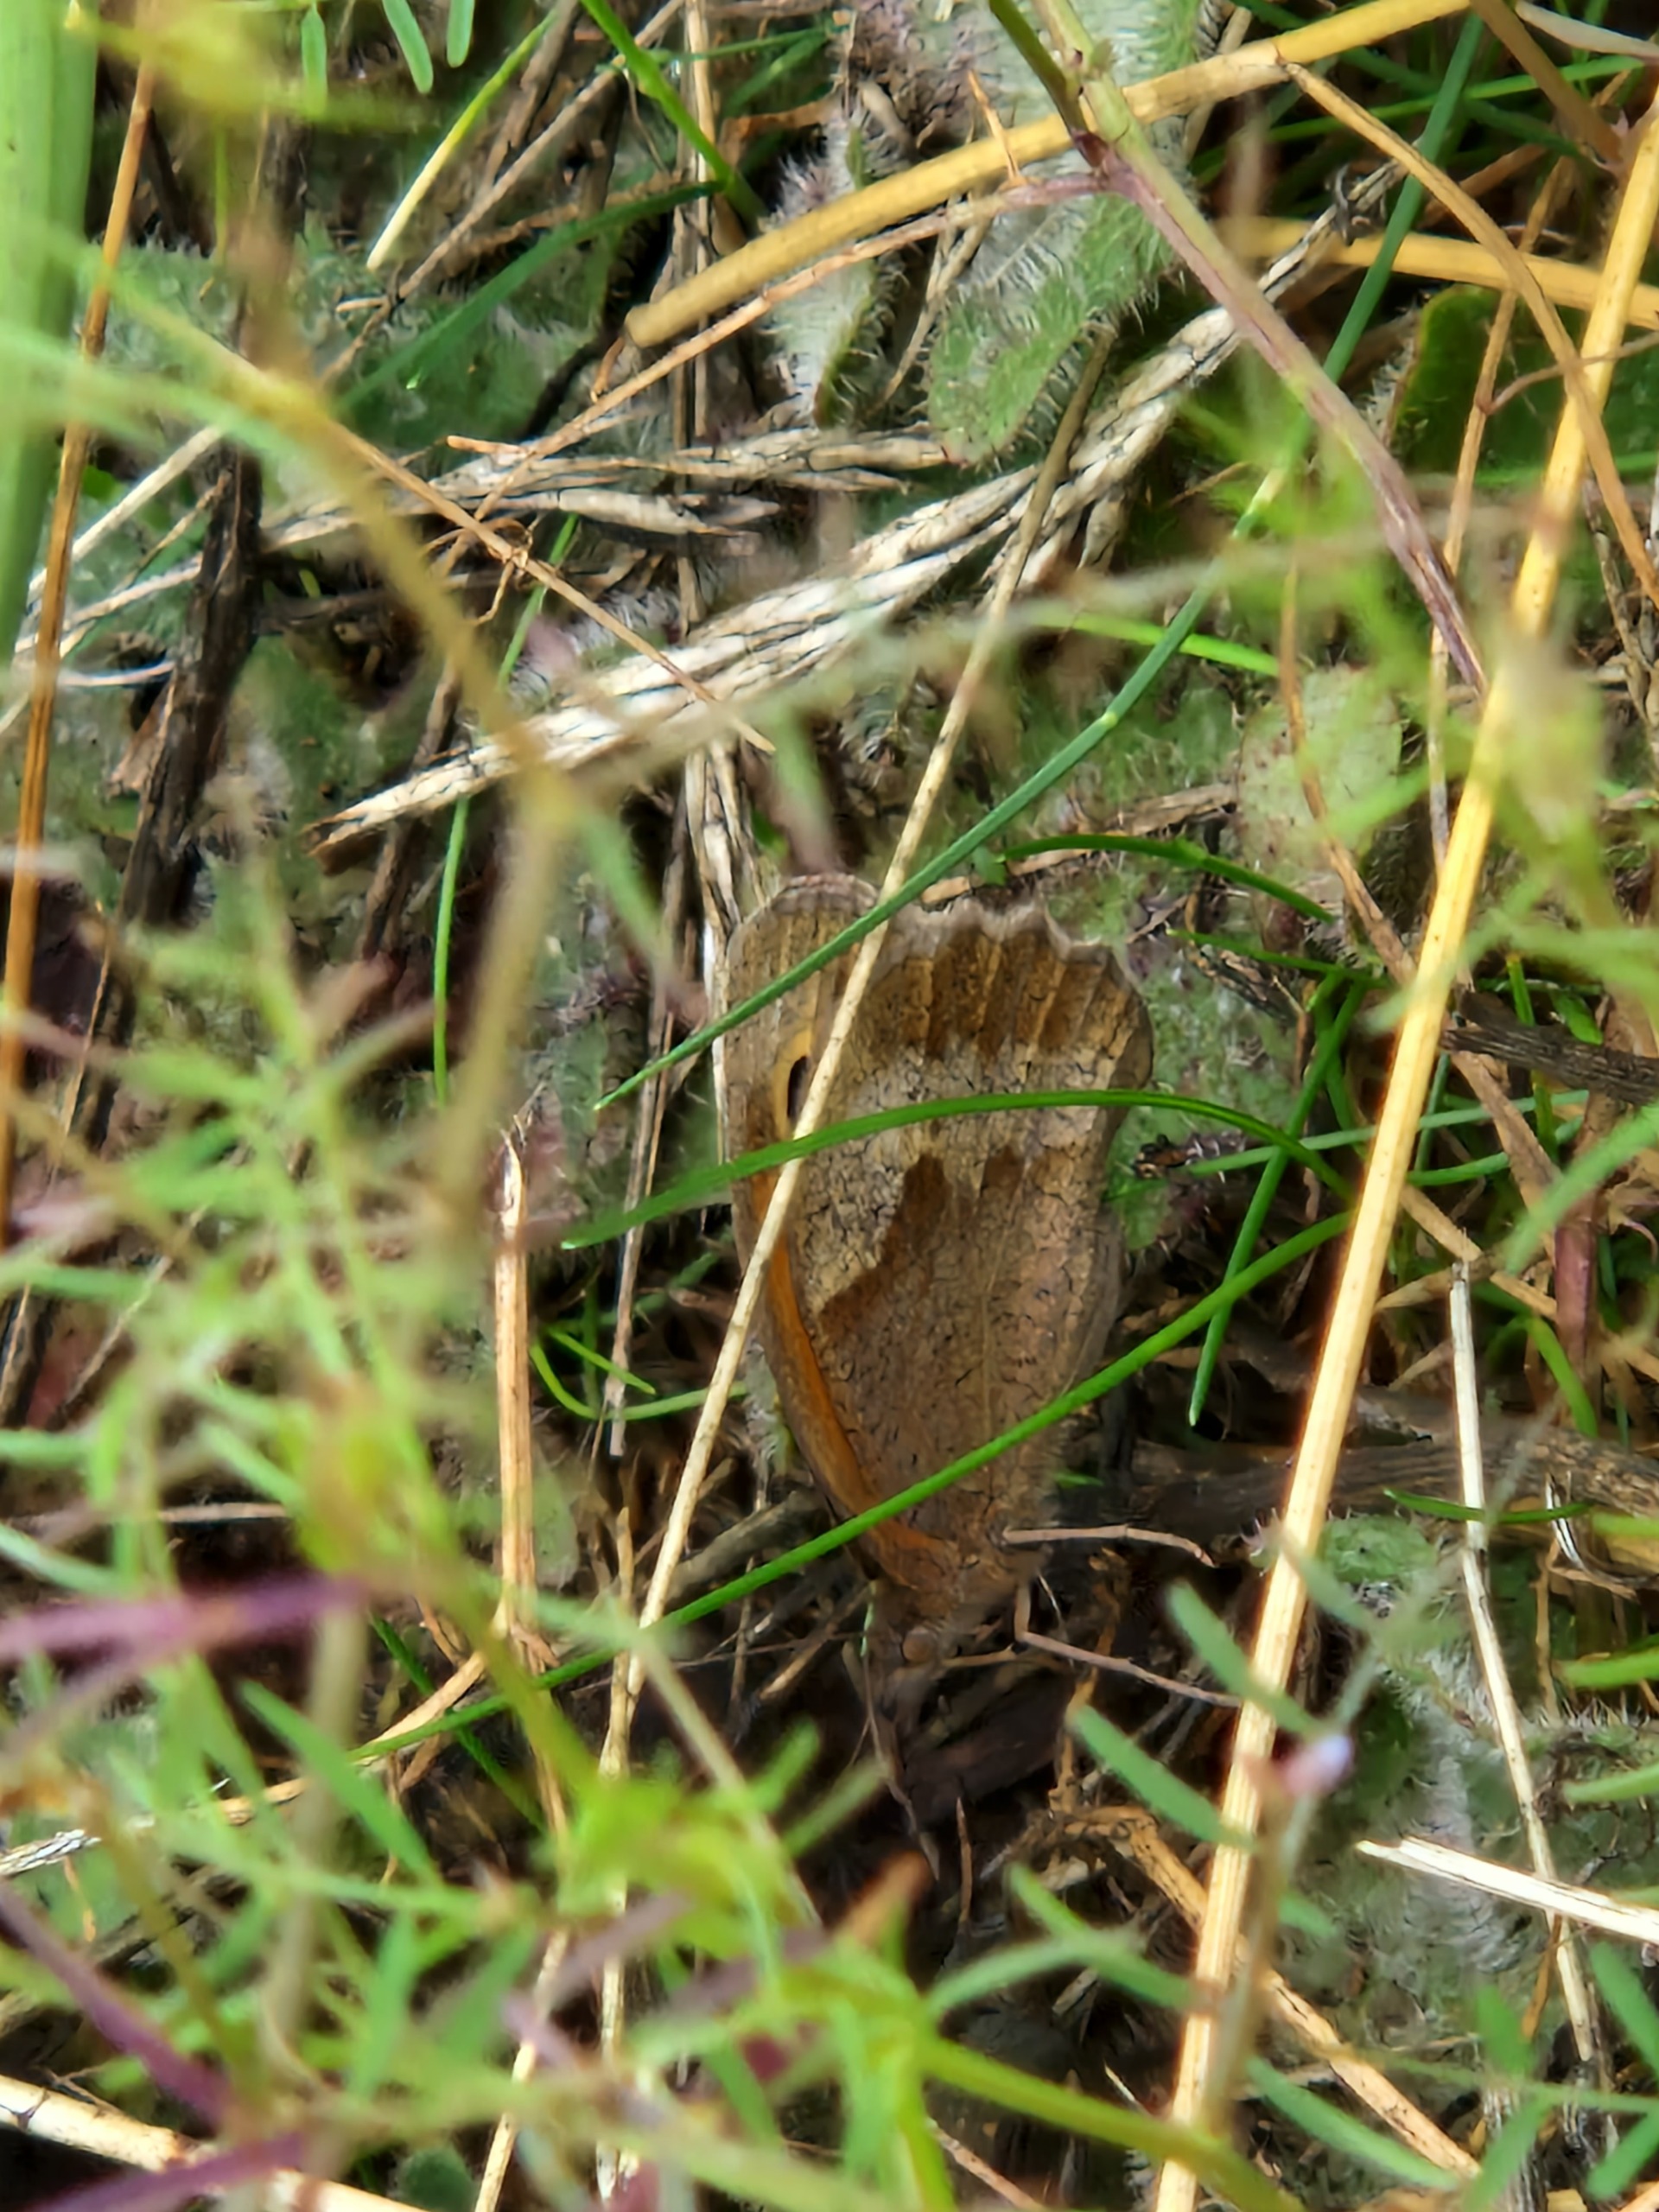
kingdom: Animalia
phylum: Arthropoda
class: Insecta
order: Lepidoptera
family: Nymphalidae
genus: Maniola
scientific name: Maniola jurtina
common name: Græsrandøje
